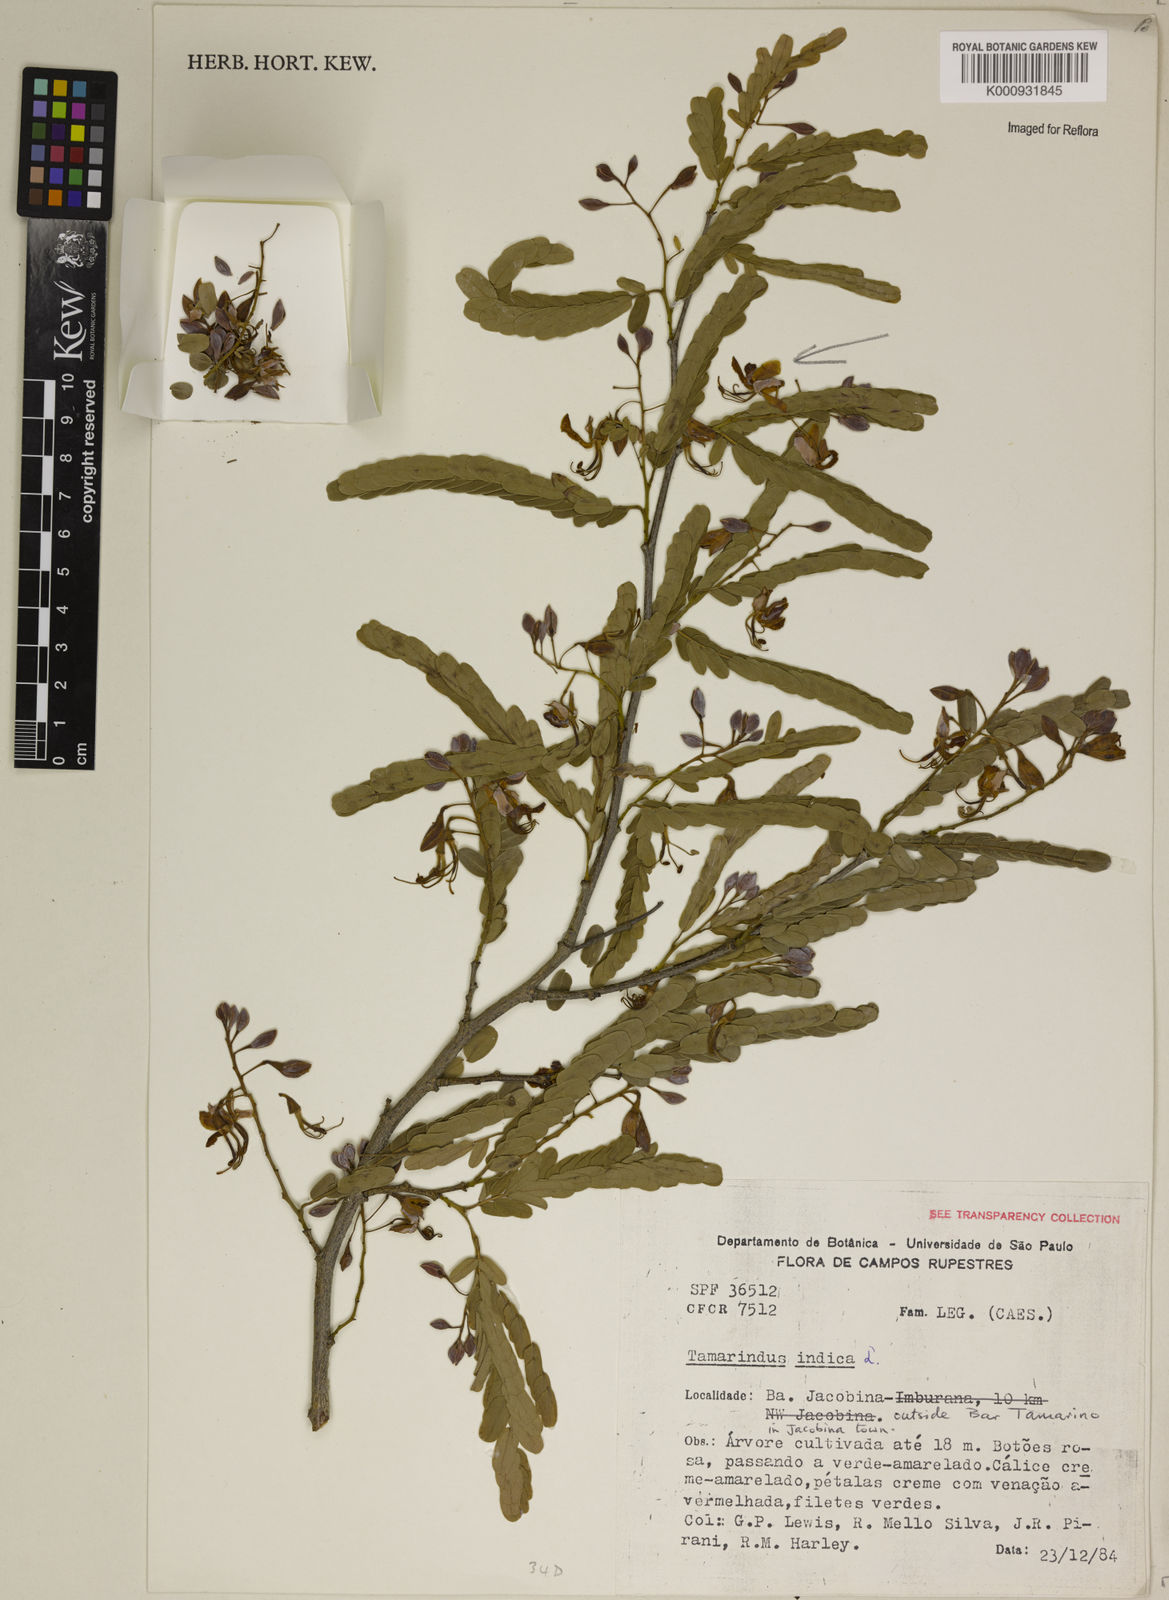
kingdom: Plantae
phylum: Tracheophyta
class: Magnoliopsida
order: Fabales
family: Fabaceae
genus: Tamarindus
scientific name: Tamarindus indica
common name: Tamarind
